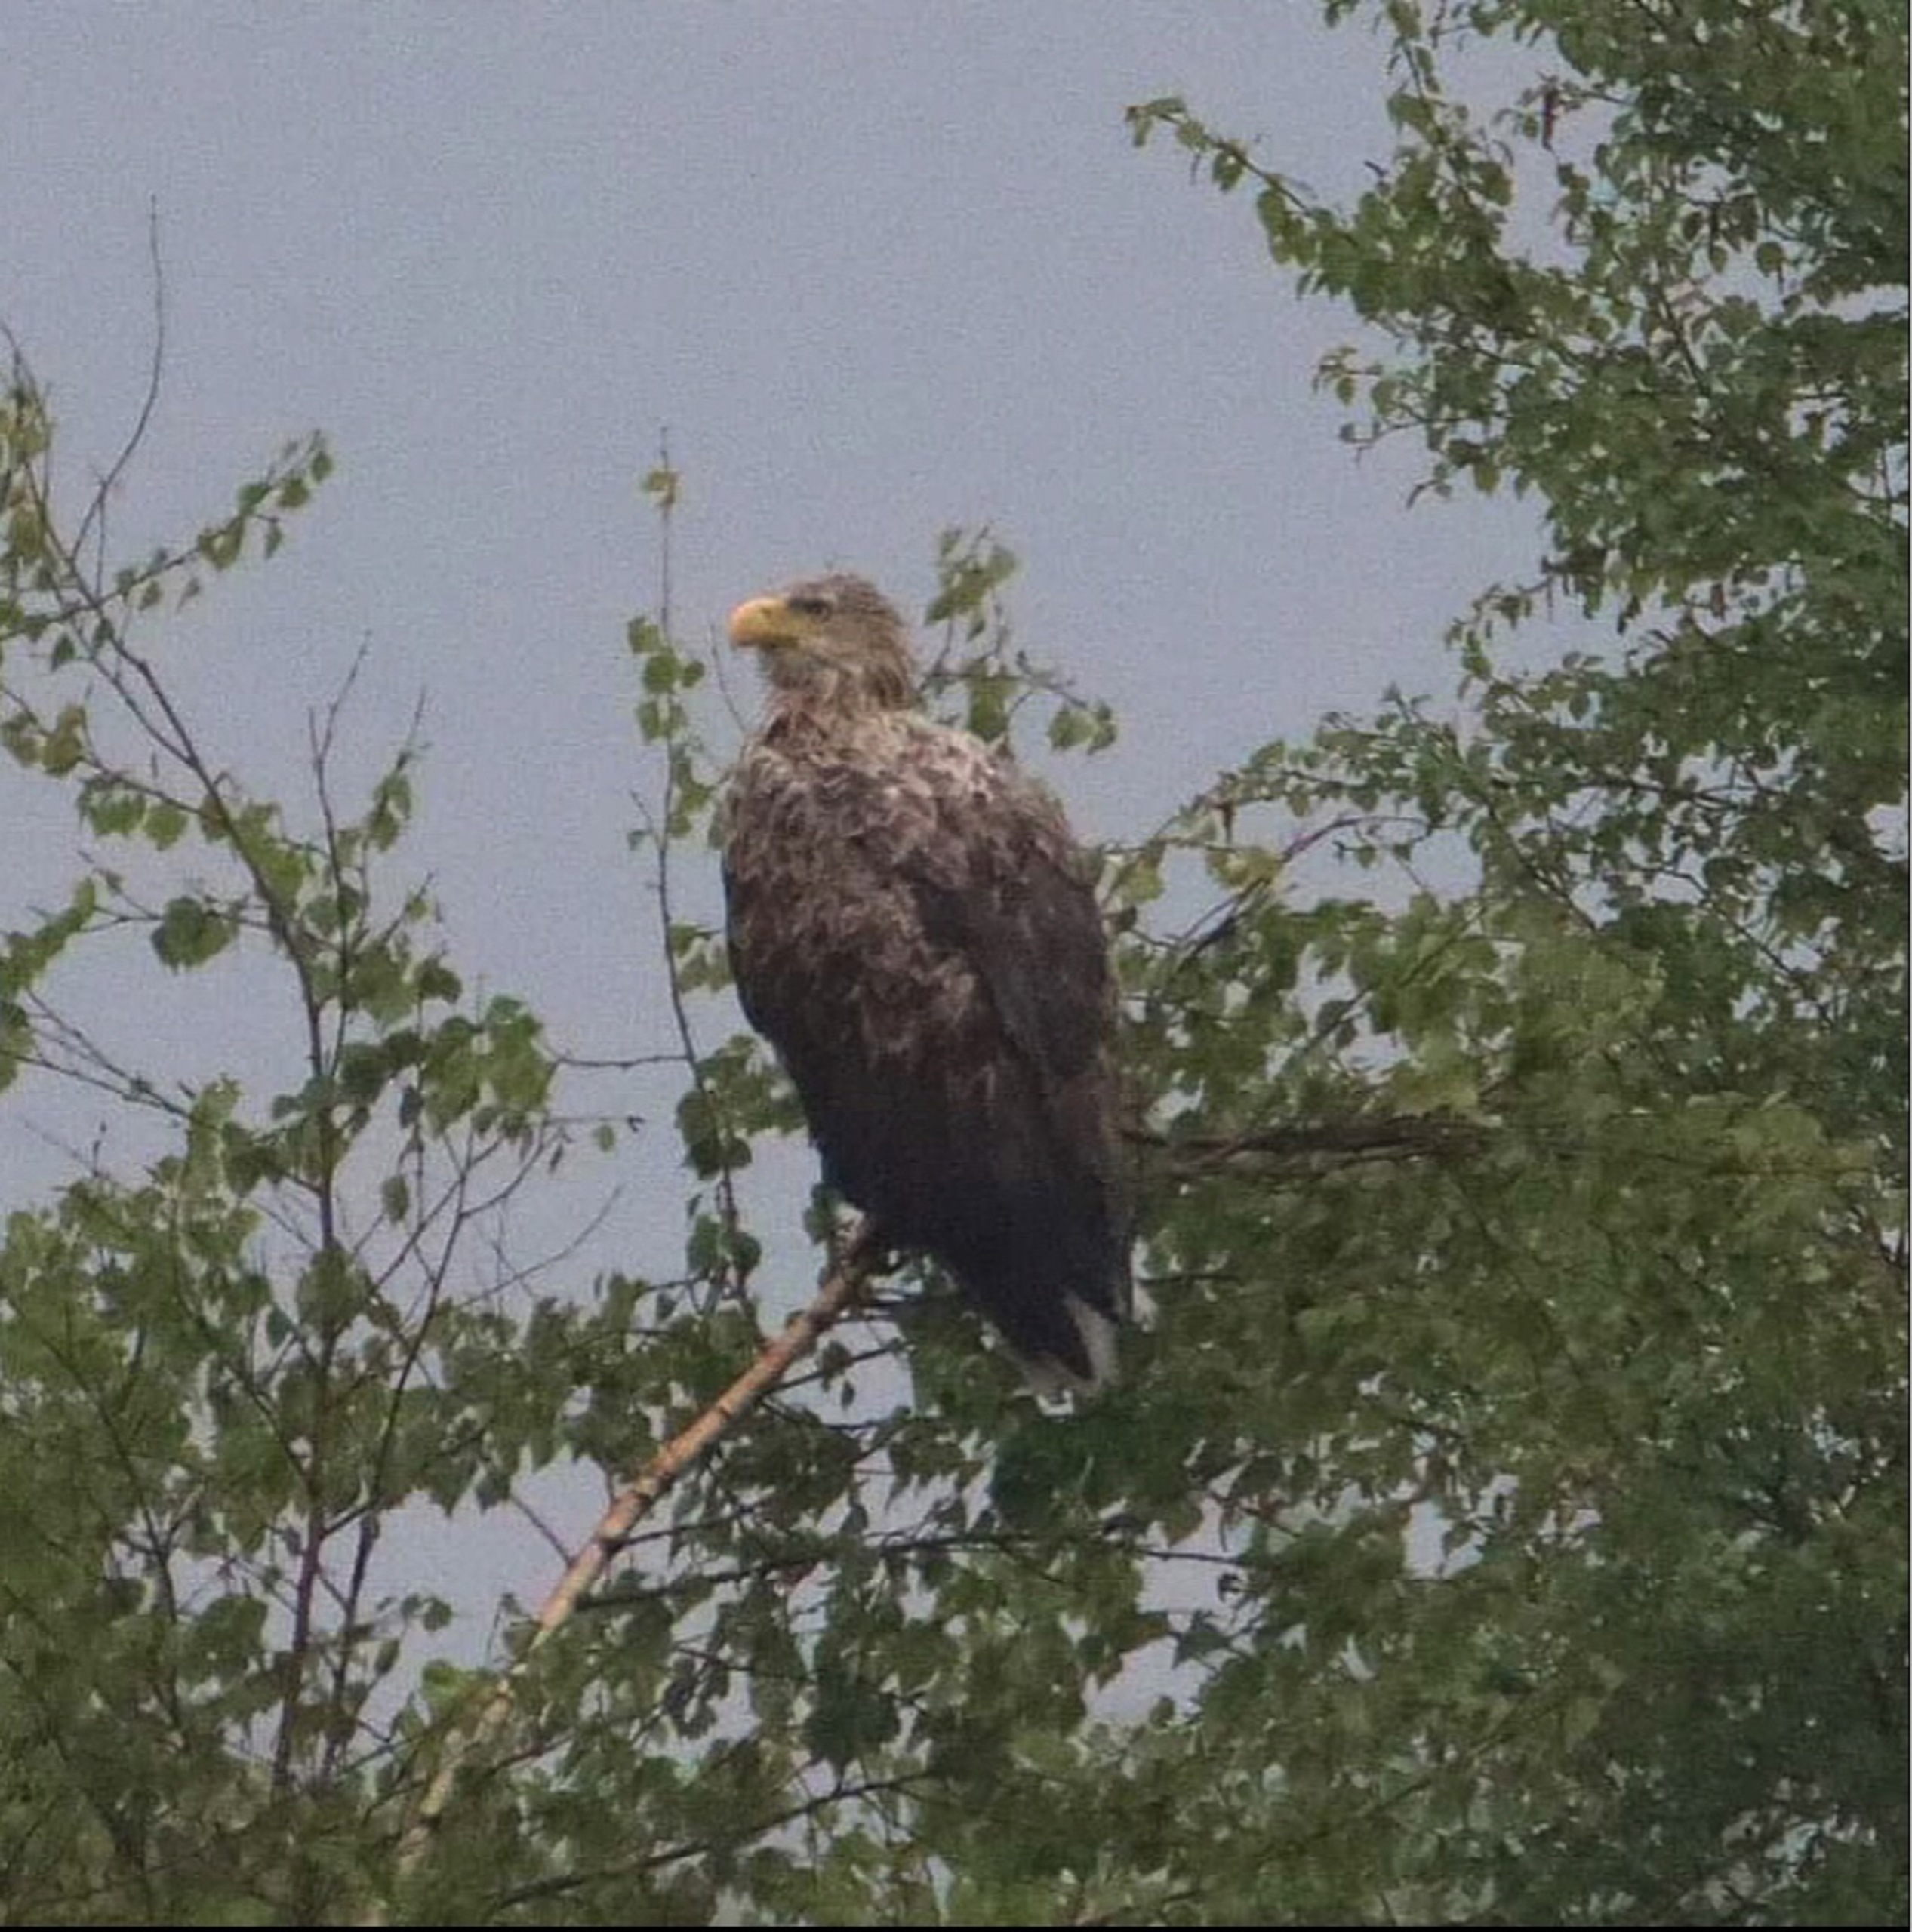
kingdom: Animalia
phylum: Chordata
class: Aves
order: Accipitriformes
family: Accipitridae
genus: Haliaeetus
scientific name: Haliaeetus albicilla
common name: Havørn
